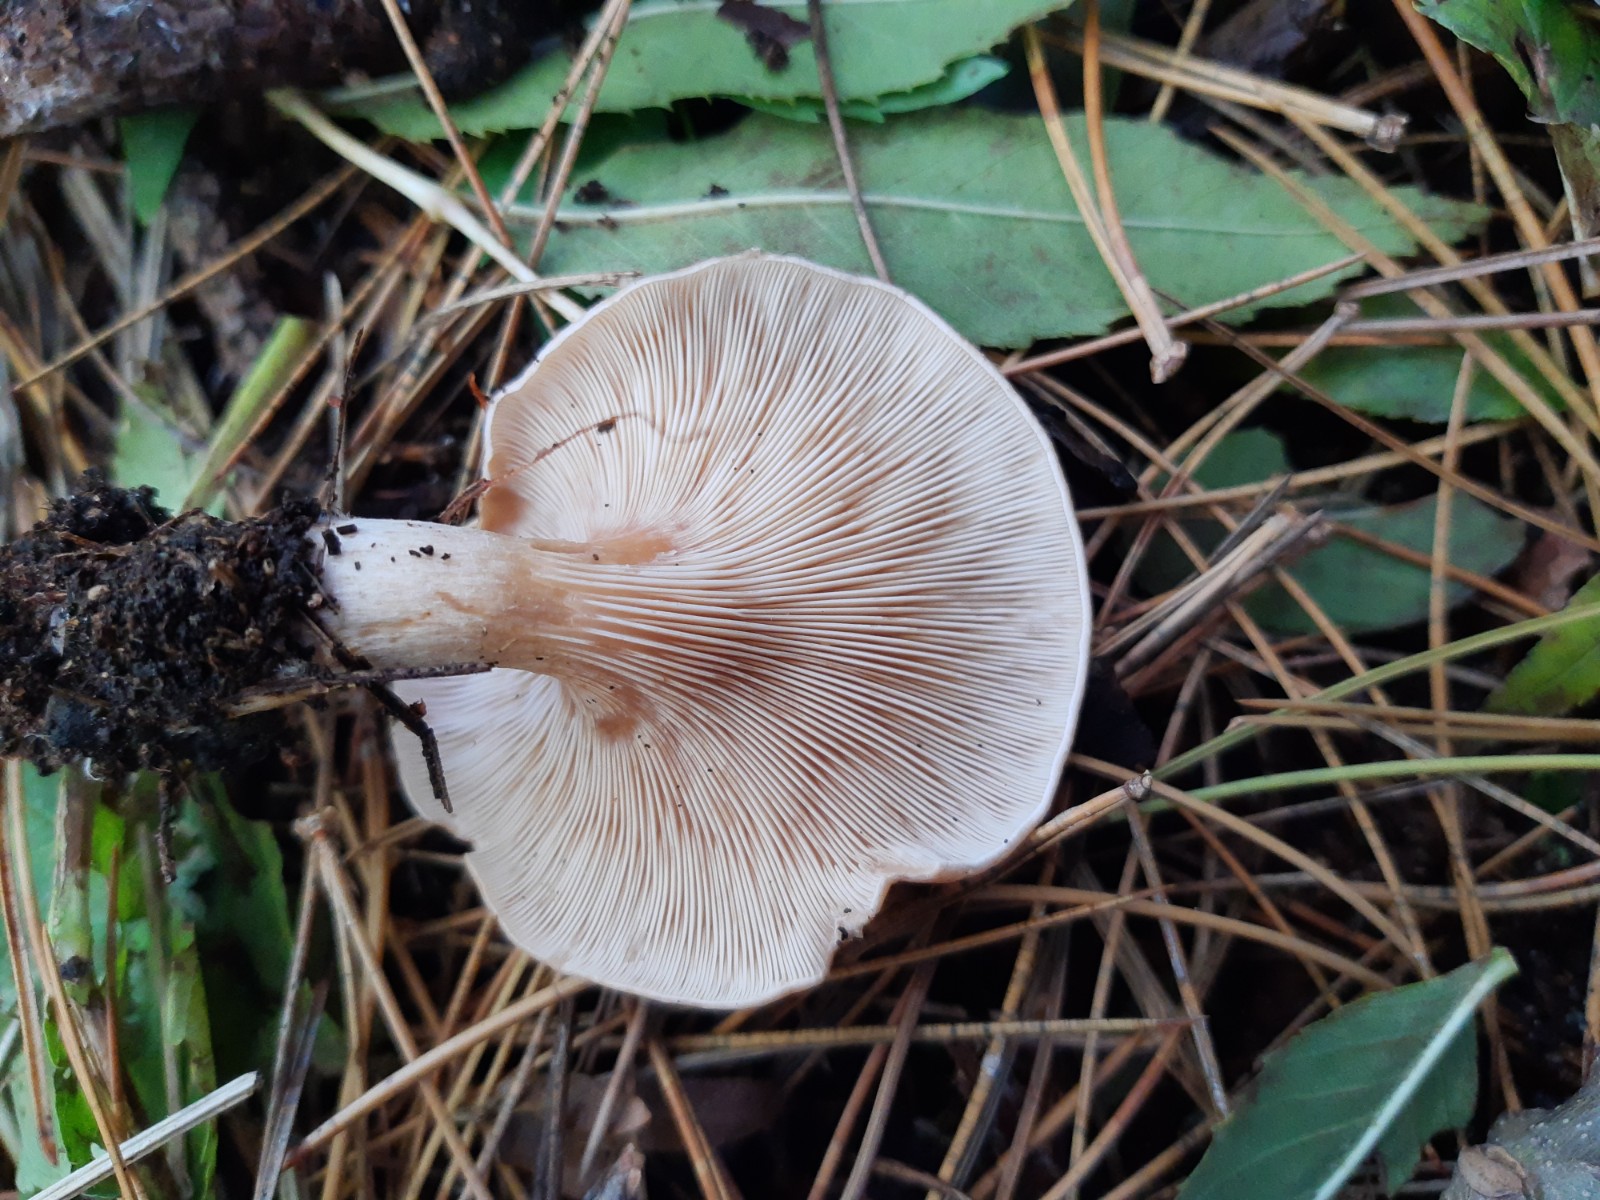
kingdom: Fungi
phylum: Basidiomycota
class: Agaricomycetes
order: Agaricales
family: Tricholomataceae
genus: Paralepista
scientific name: Paralepista flaccida
